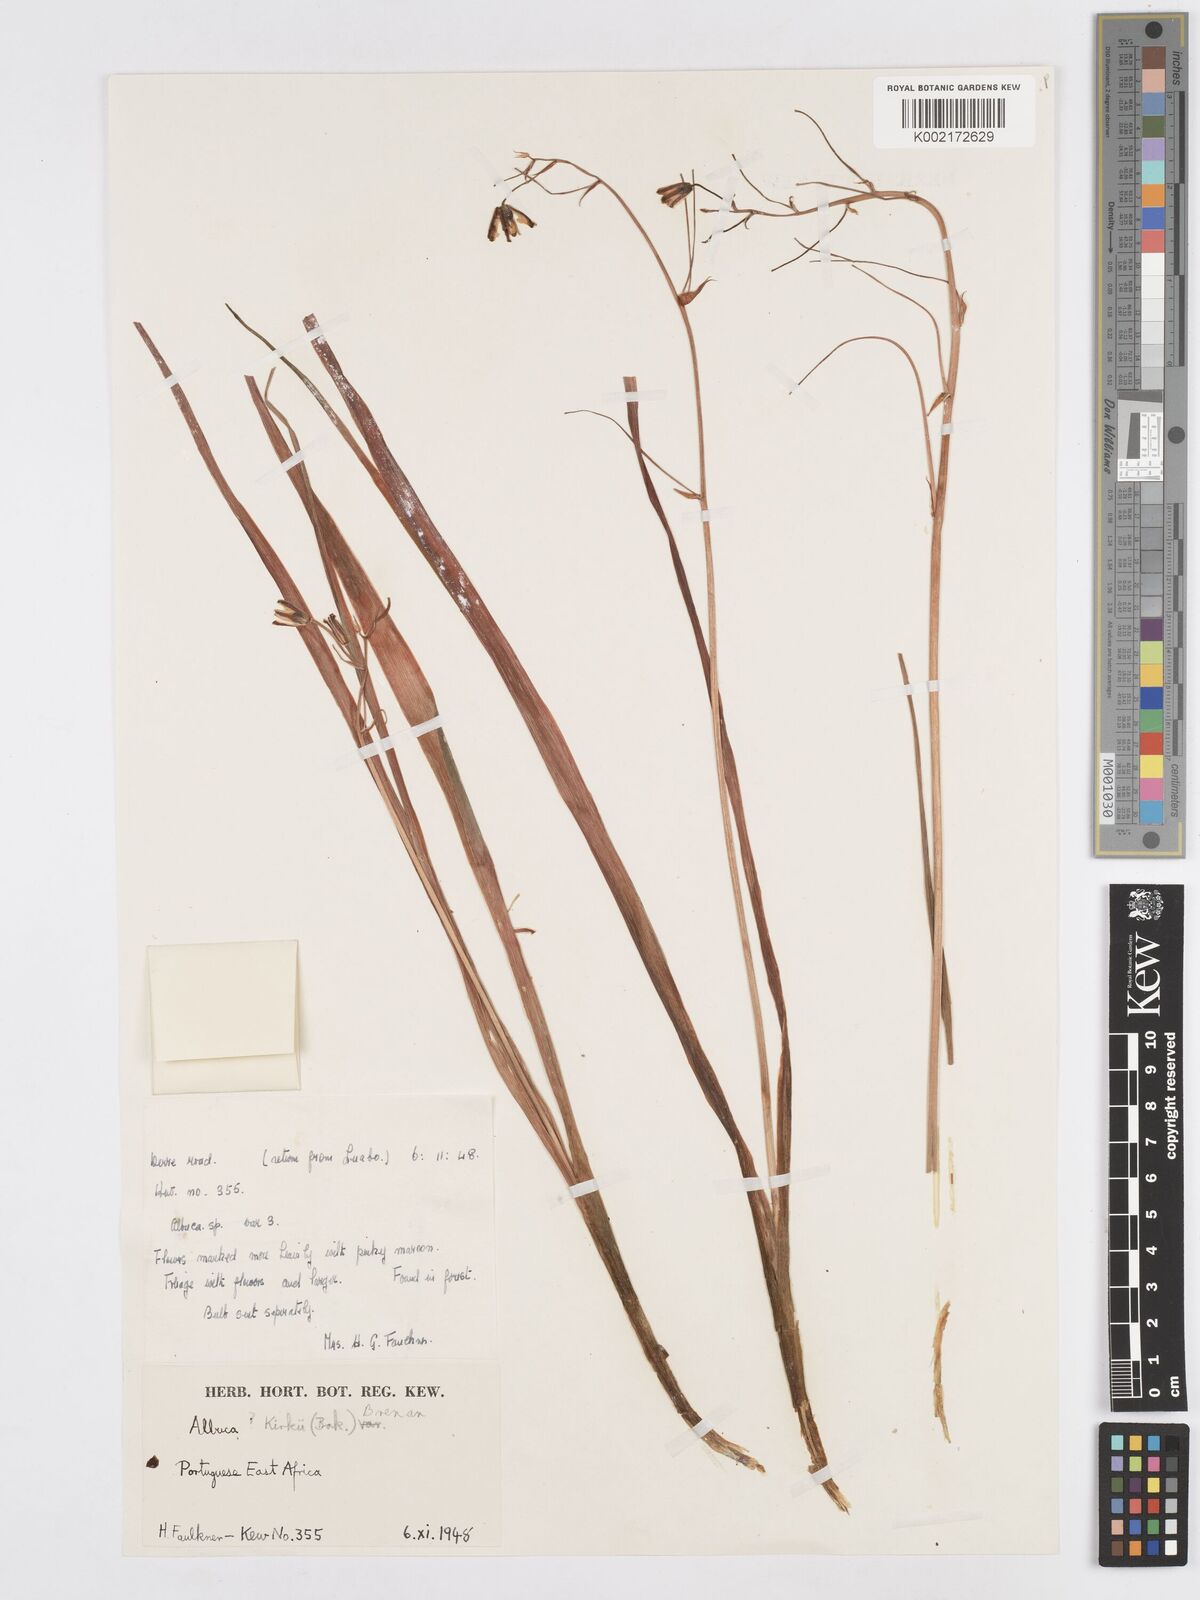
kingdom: Plantae
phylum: Tracheophyta
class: Liliopsida
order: Asparagales
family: Asparagaceae
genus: Albuca
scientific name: Albuca kirkii
